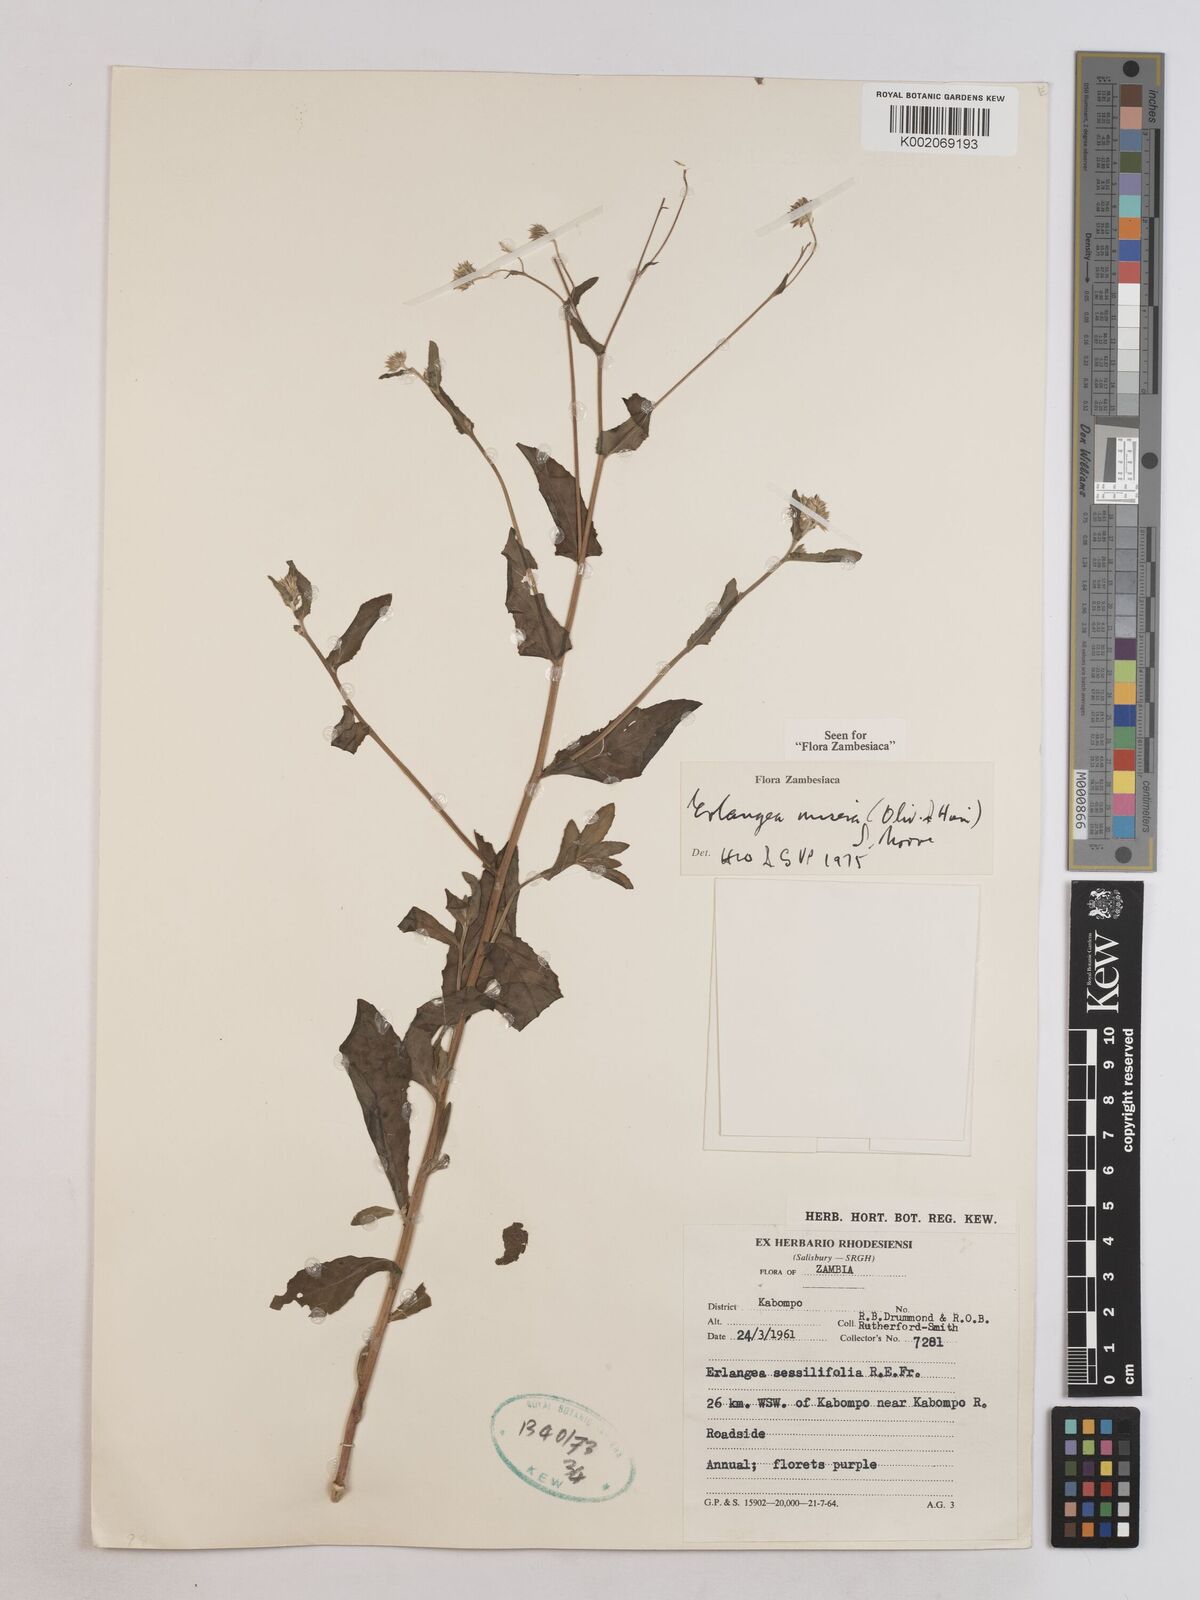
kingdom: Plantae
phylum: Tracheophyta
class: Magnoliopsida
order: Asterales
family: Asteraceae
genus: Erlangea
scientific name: Erlangea misera
